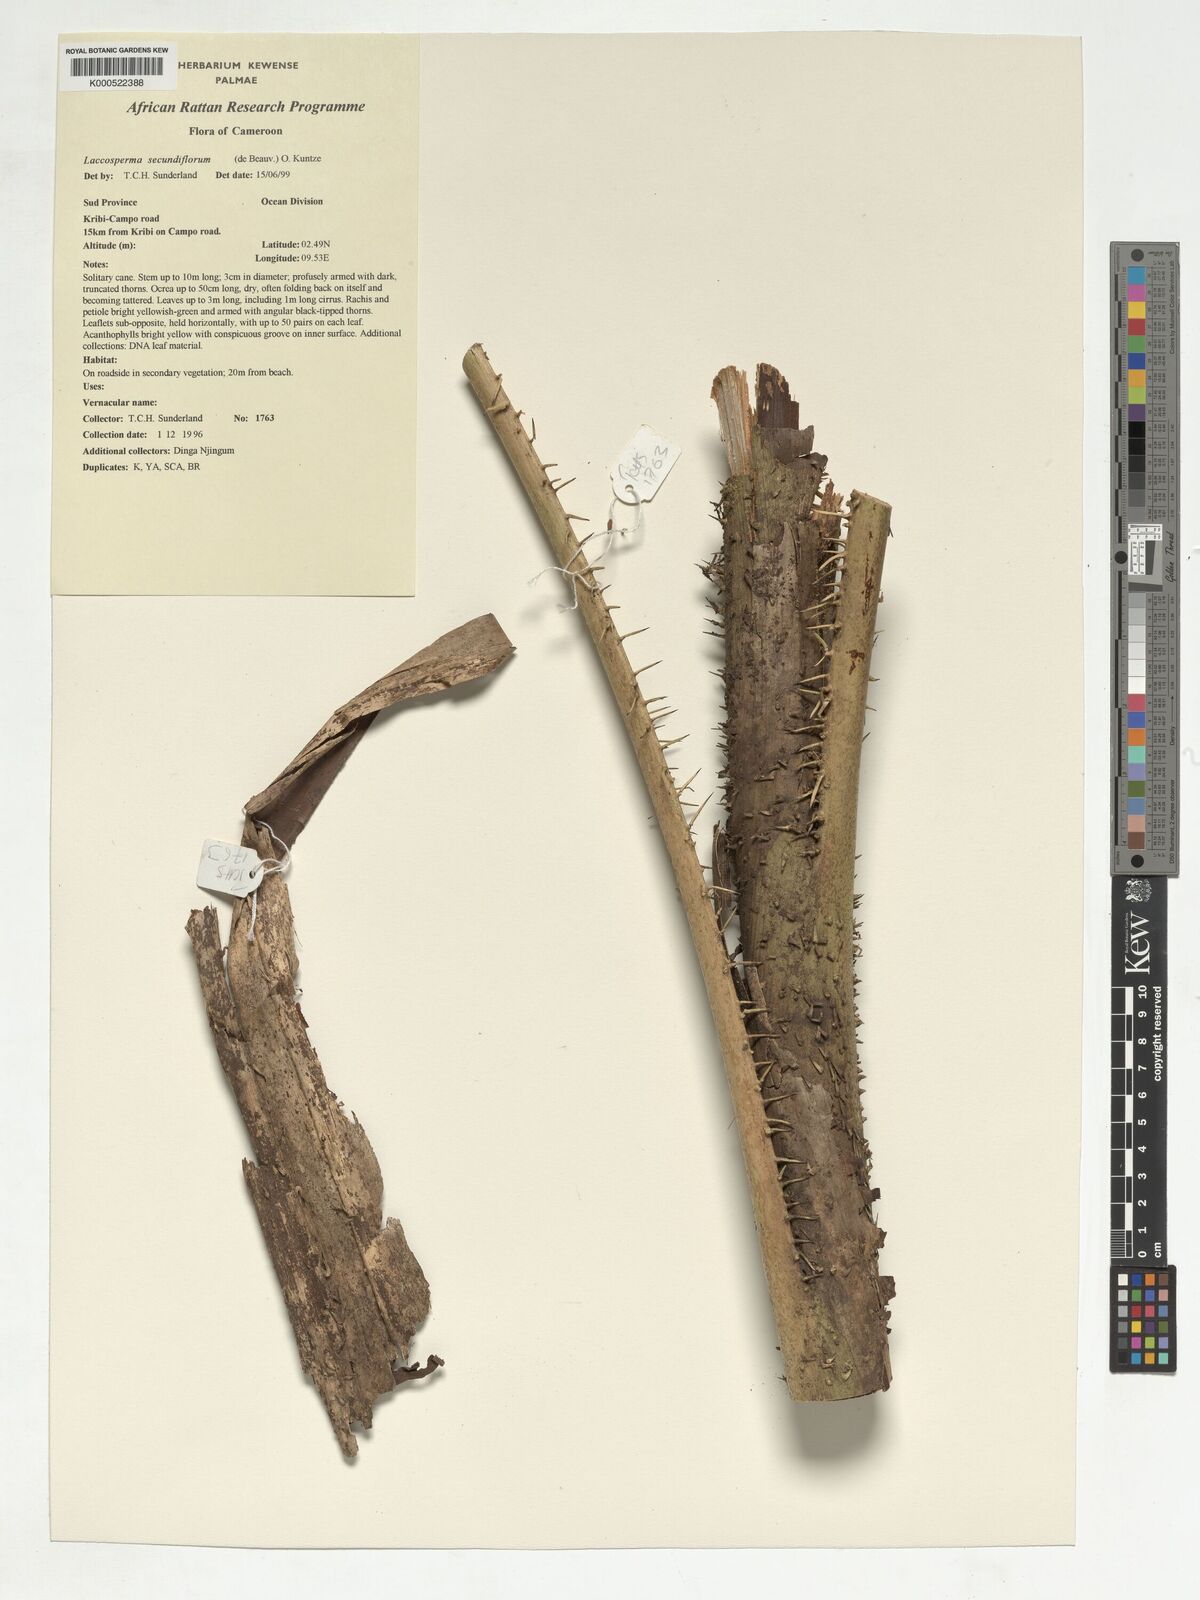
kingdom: Plantae
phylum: Tracheophyta
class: Liliopsida
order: Arecales
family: Arecaceae
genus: Laccosperma
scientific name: Laccosperma secundiflorum
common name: Rattan
